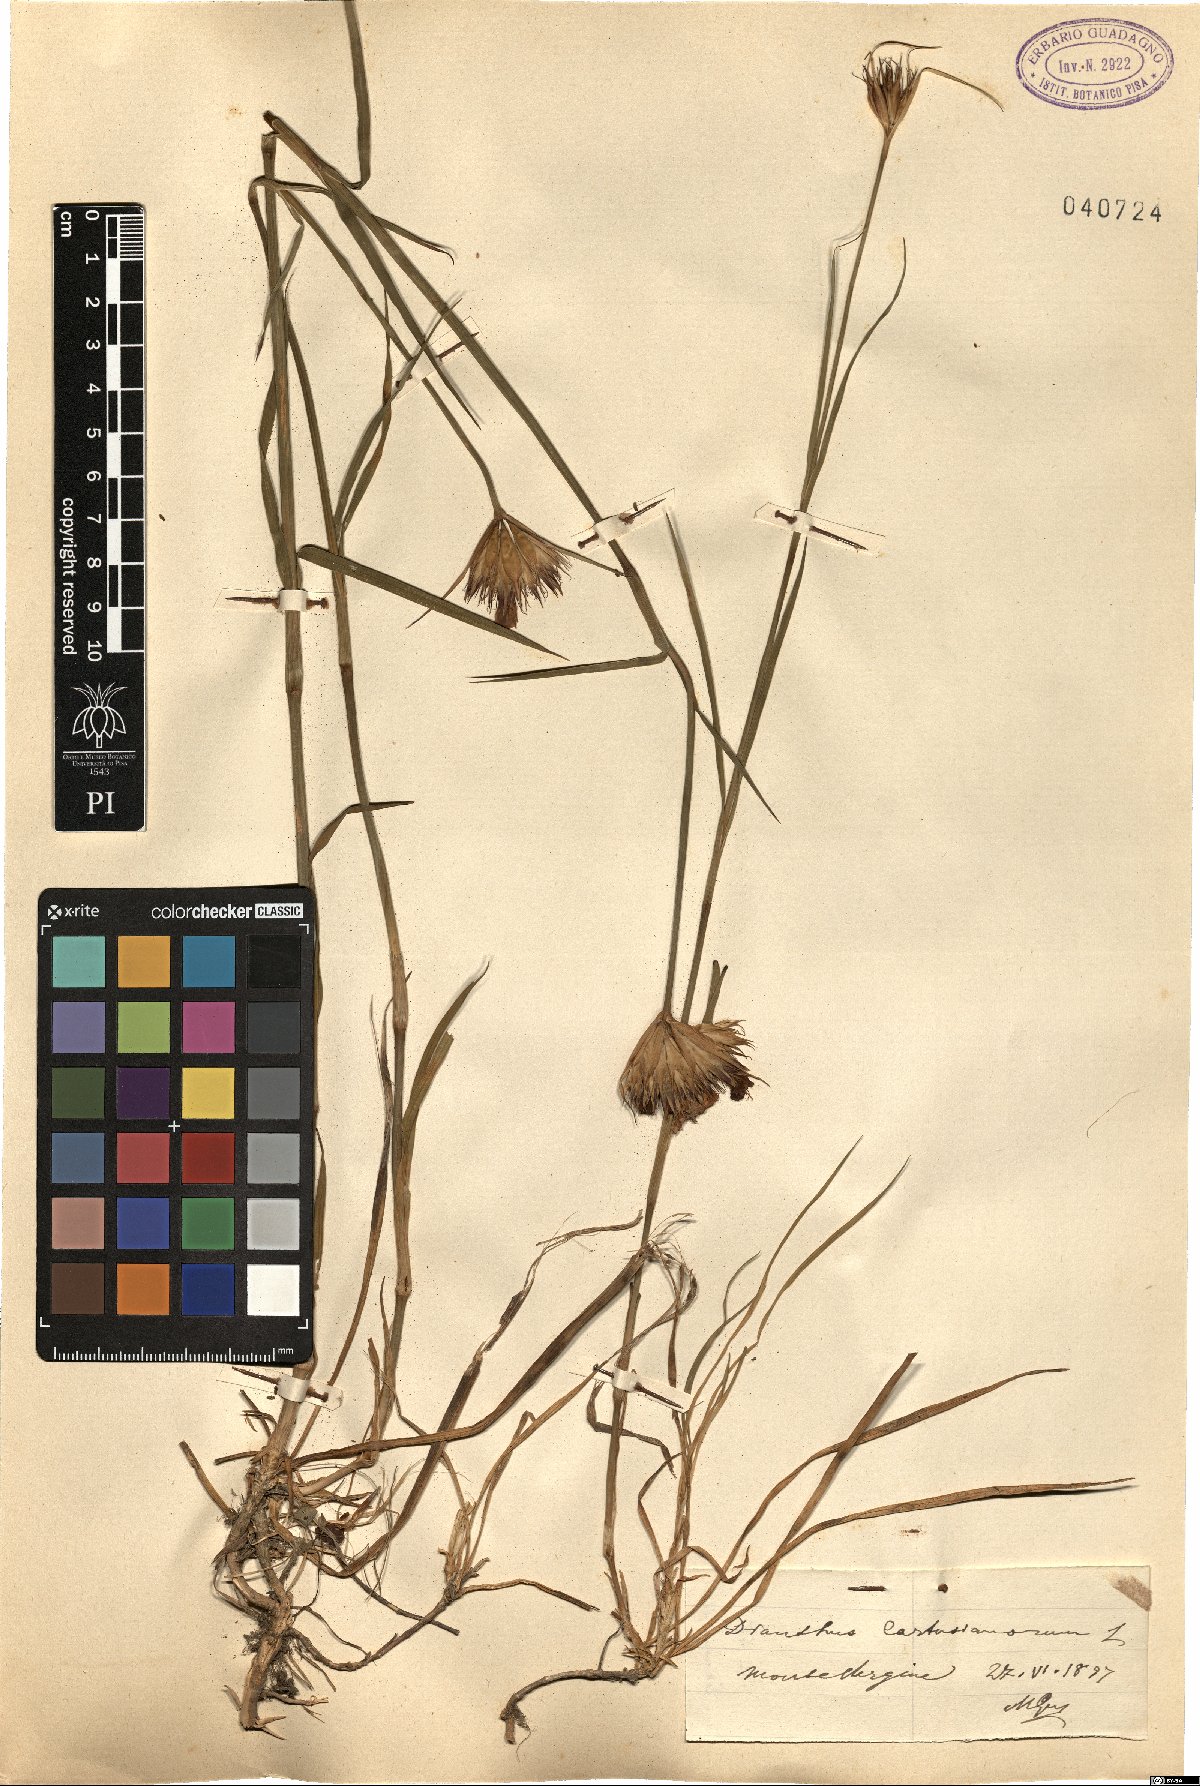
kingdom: Plantae
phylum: Tracheophyta
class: Magnoliopsida
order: Caryophyllales
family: Caryophyllaceae
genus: Dianthus
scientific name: Dianthus carthusianorum
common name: Carthusian pink
